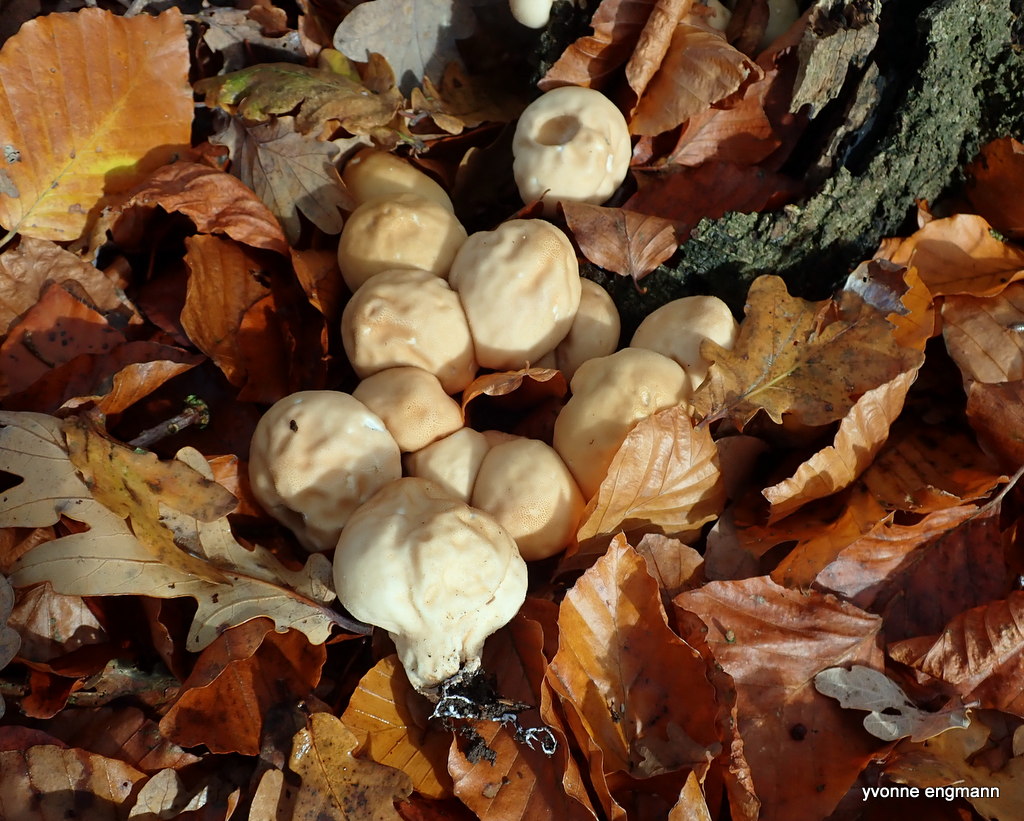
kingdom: Fungi
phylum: Basidiomycota
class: Agaricomycetes
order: Agaricales
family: Lycoperdaceae
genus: Apioperdon
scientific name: Apioperdon pyriforme
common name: pære-støvbold
